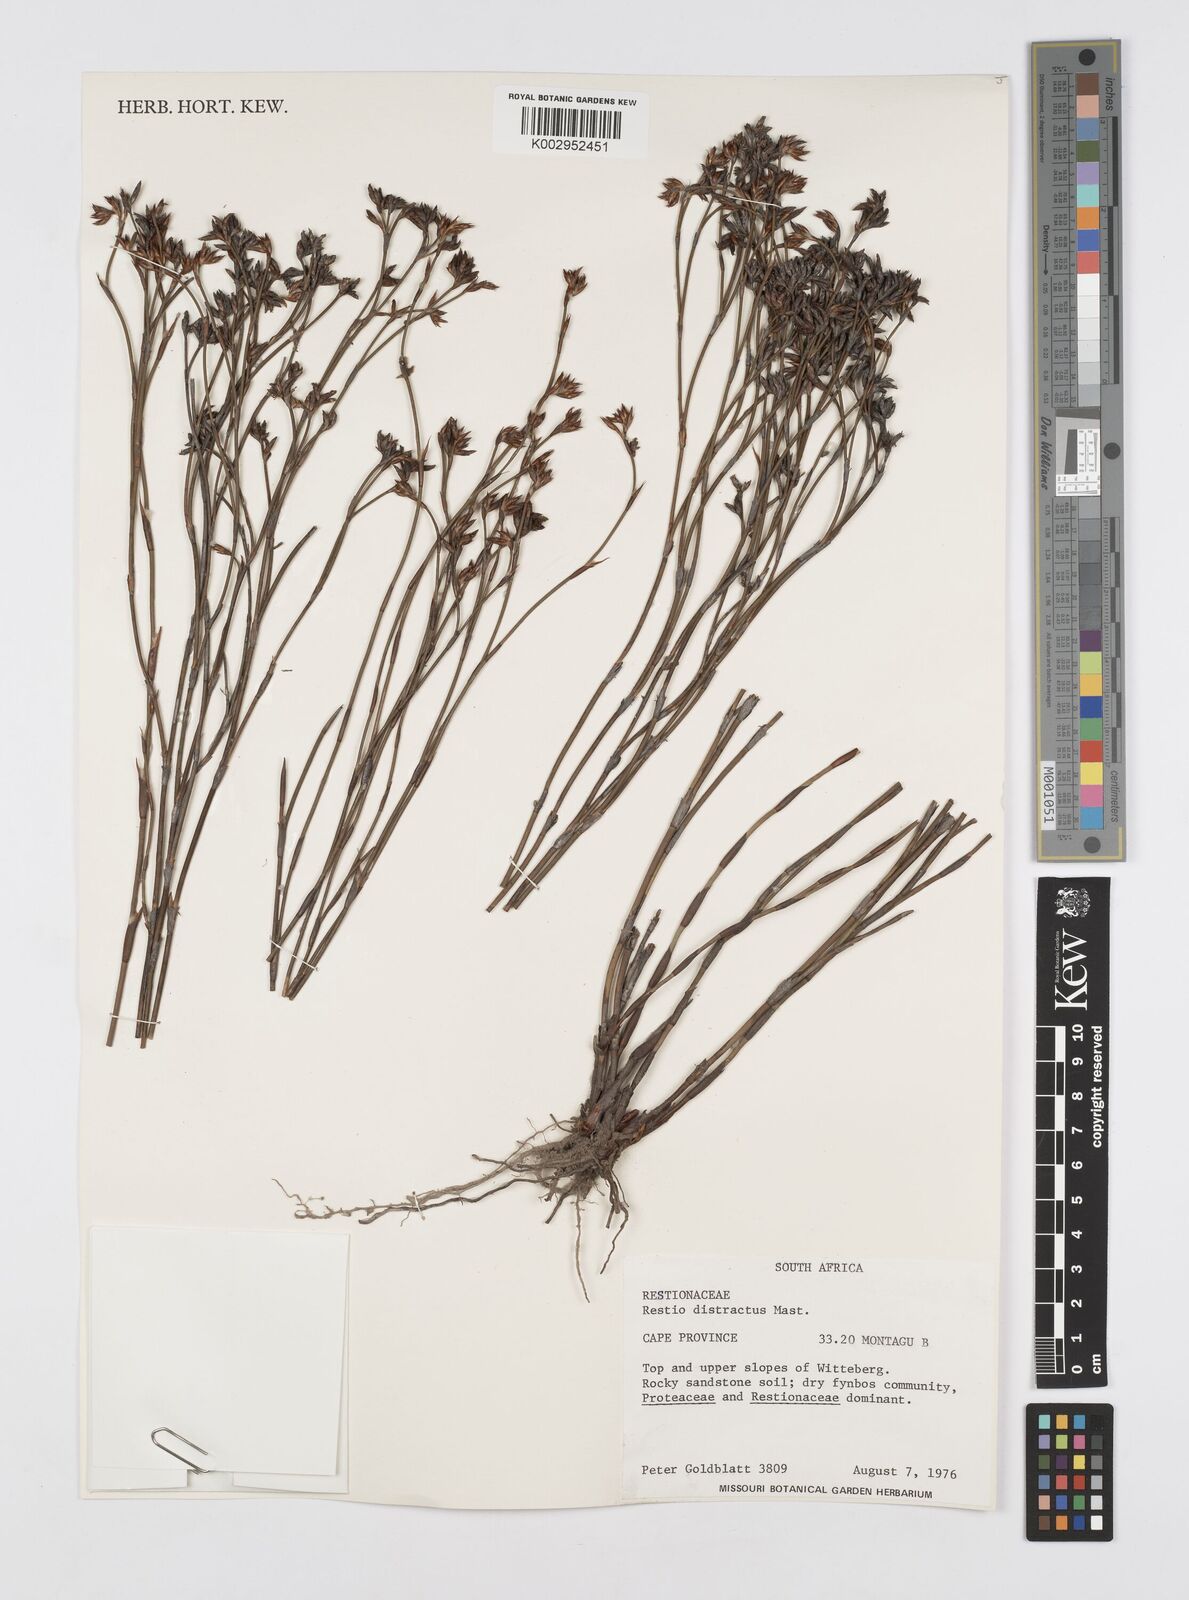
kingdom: Plantae
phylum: Tracheophyta
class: Liliopsida
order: Poales
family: Restionaceae
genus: Restio
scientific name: Restio distractus
